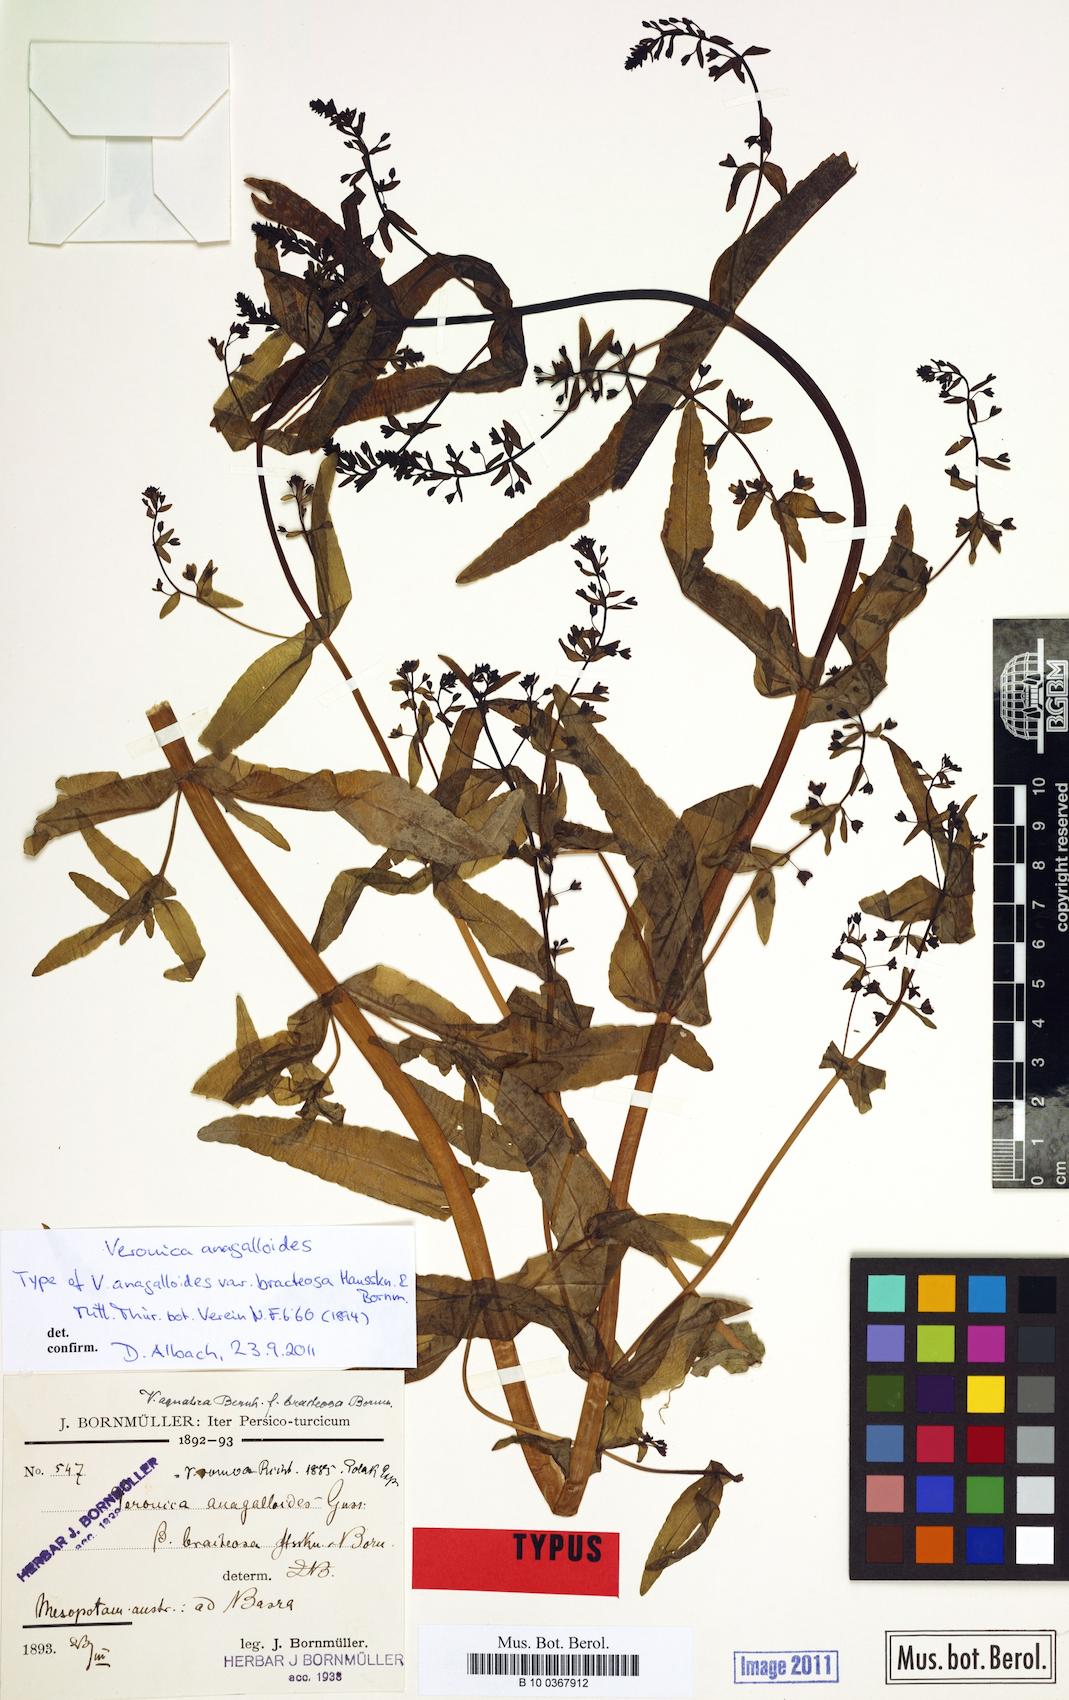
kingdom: Plantae
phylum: Tracheophyta
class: Magnoliopsida
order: Lamiales
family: Plantaginaceae
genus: Veronica
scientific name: Veronica anagalloides
